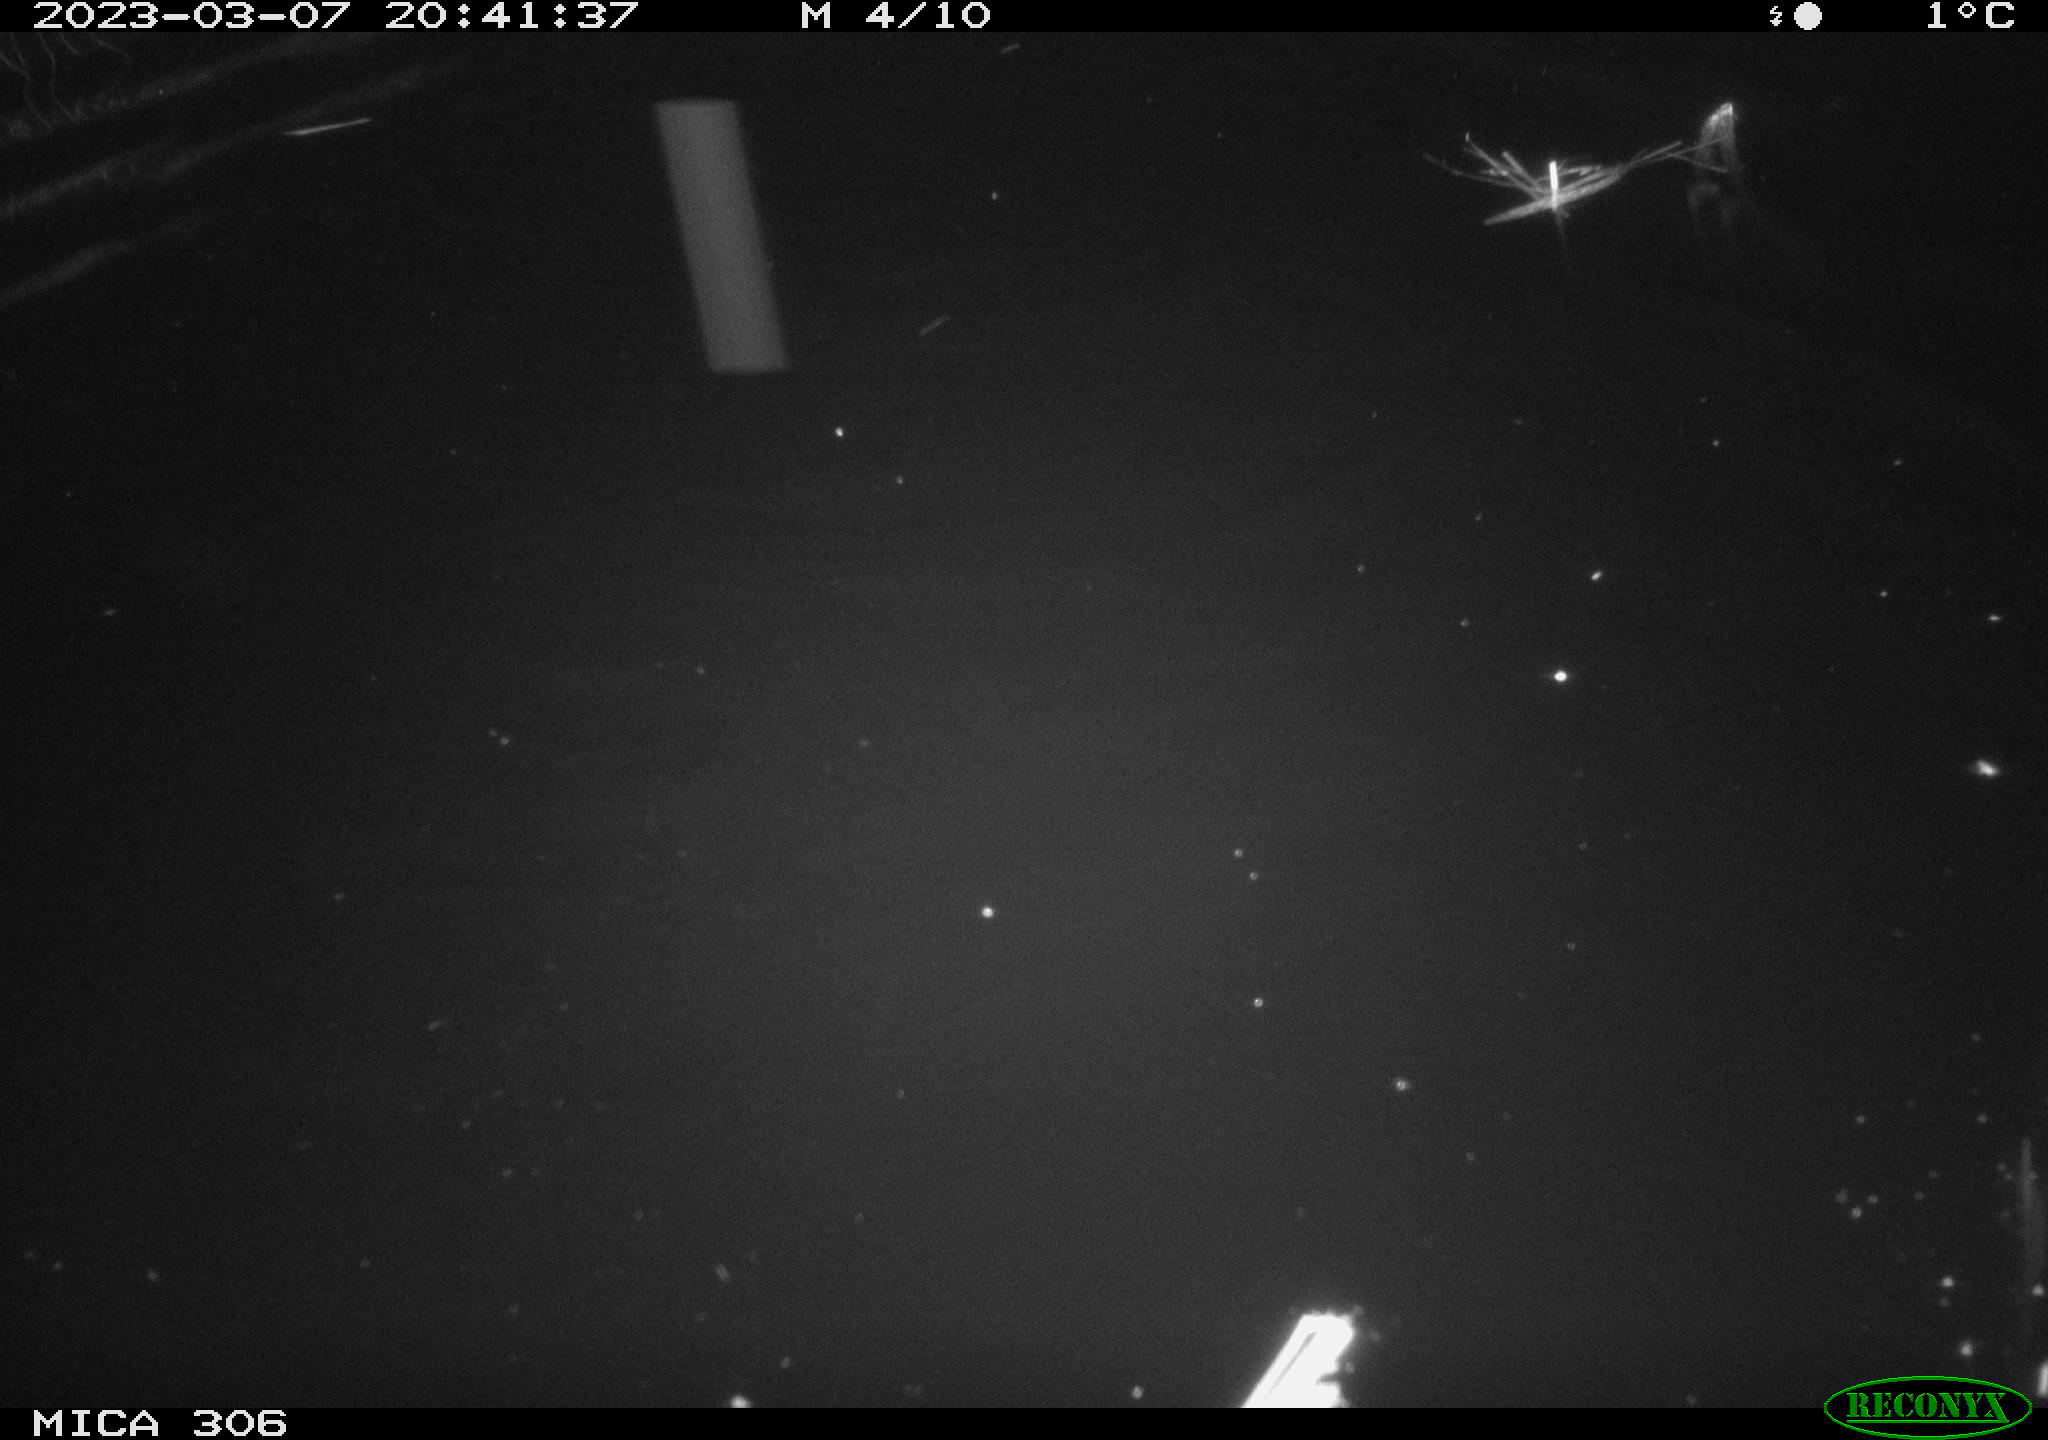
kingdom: Animalia
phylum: Chordata
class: Mammalia
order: Rodentia
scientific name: Rodentia
